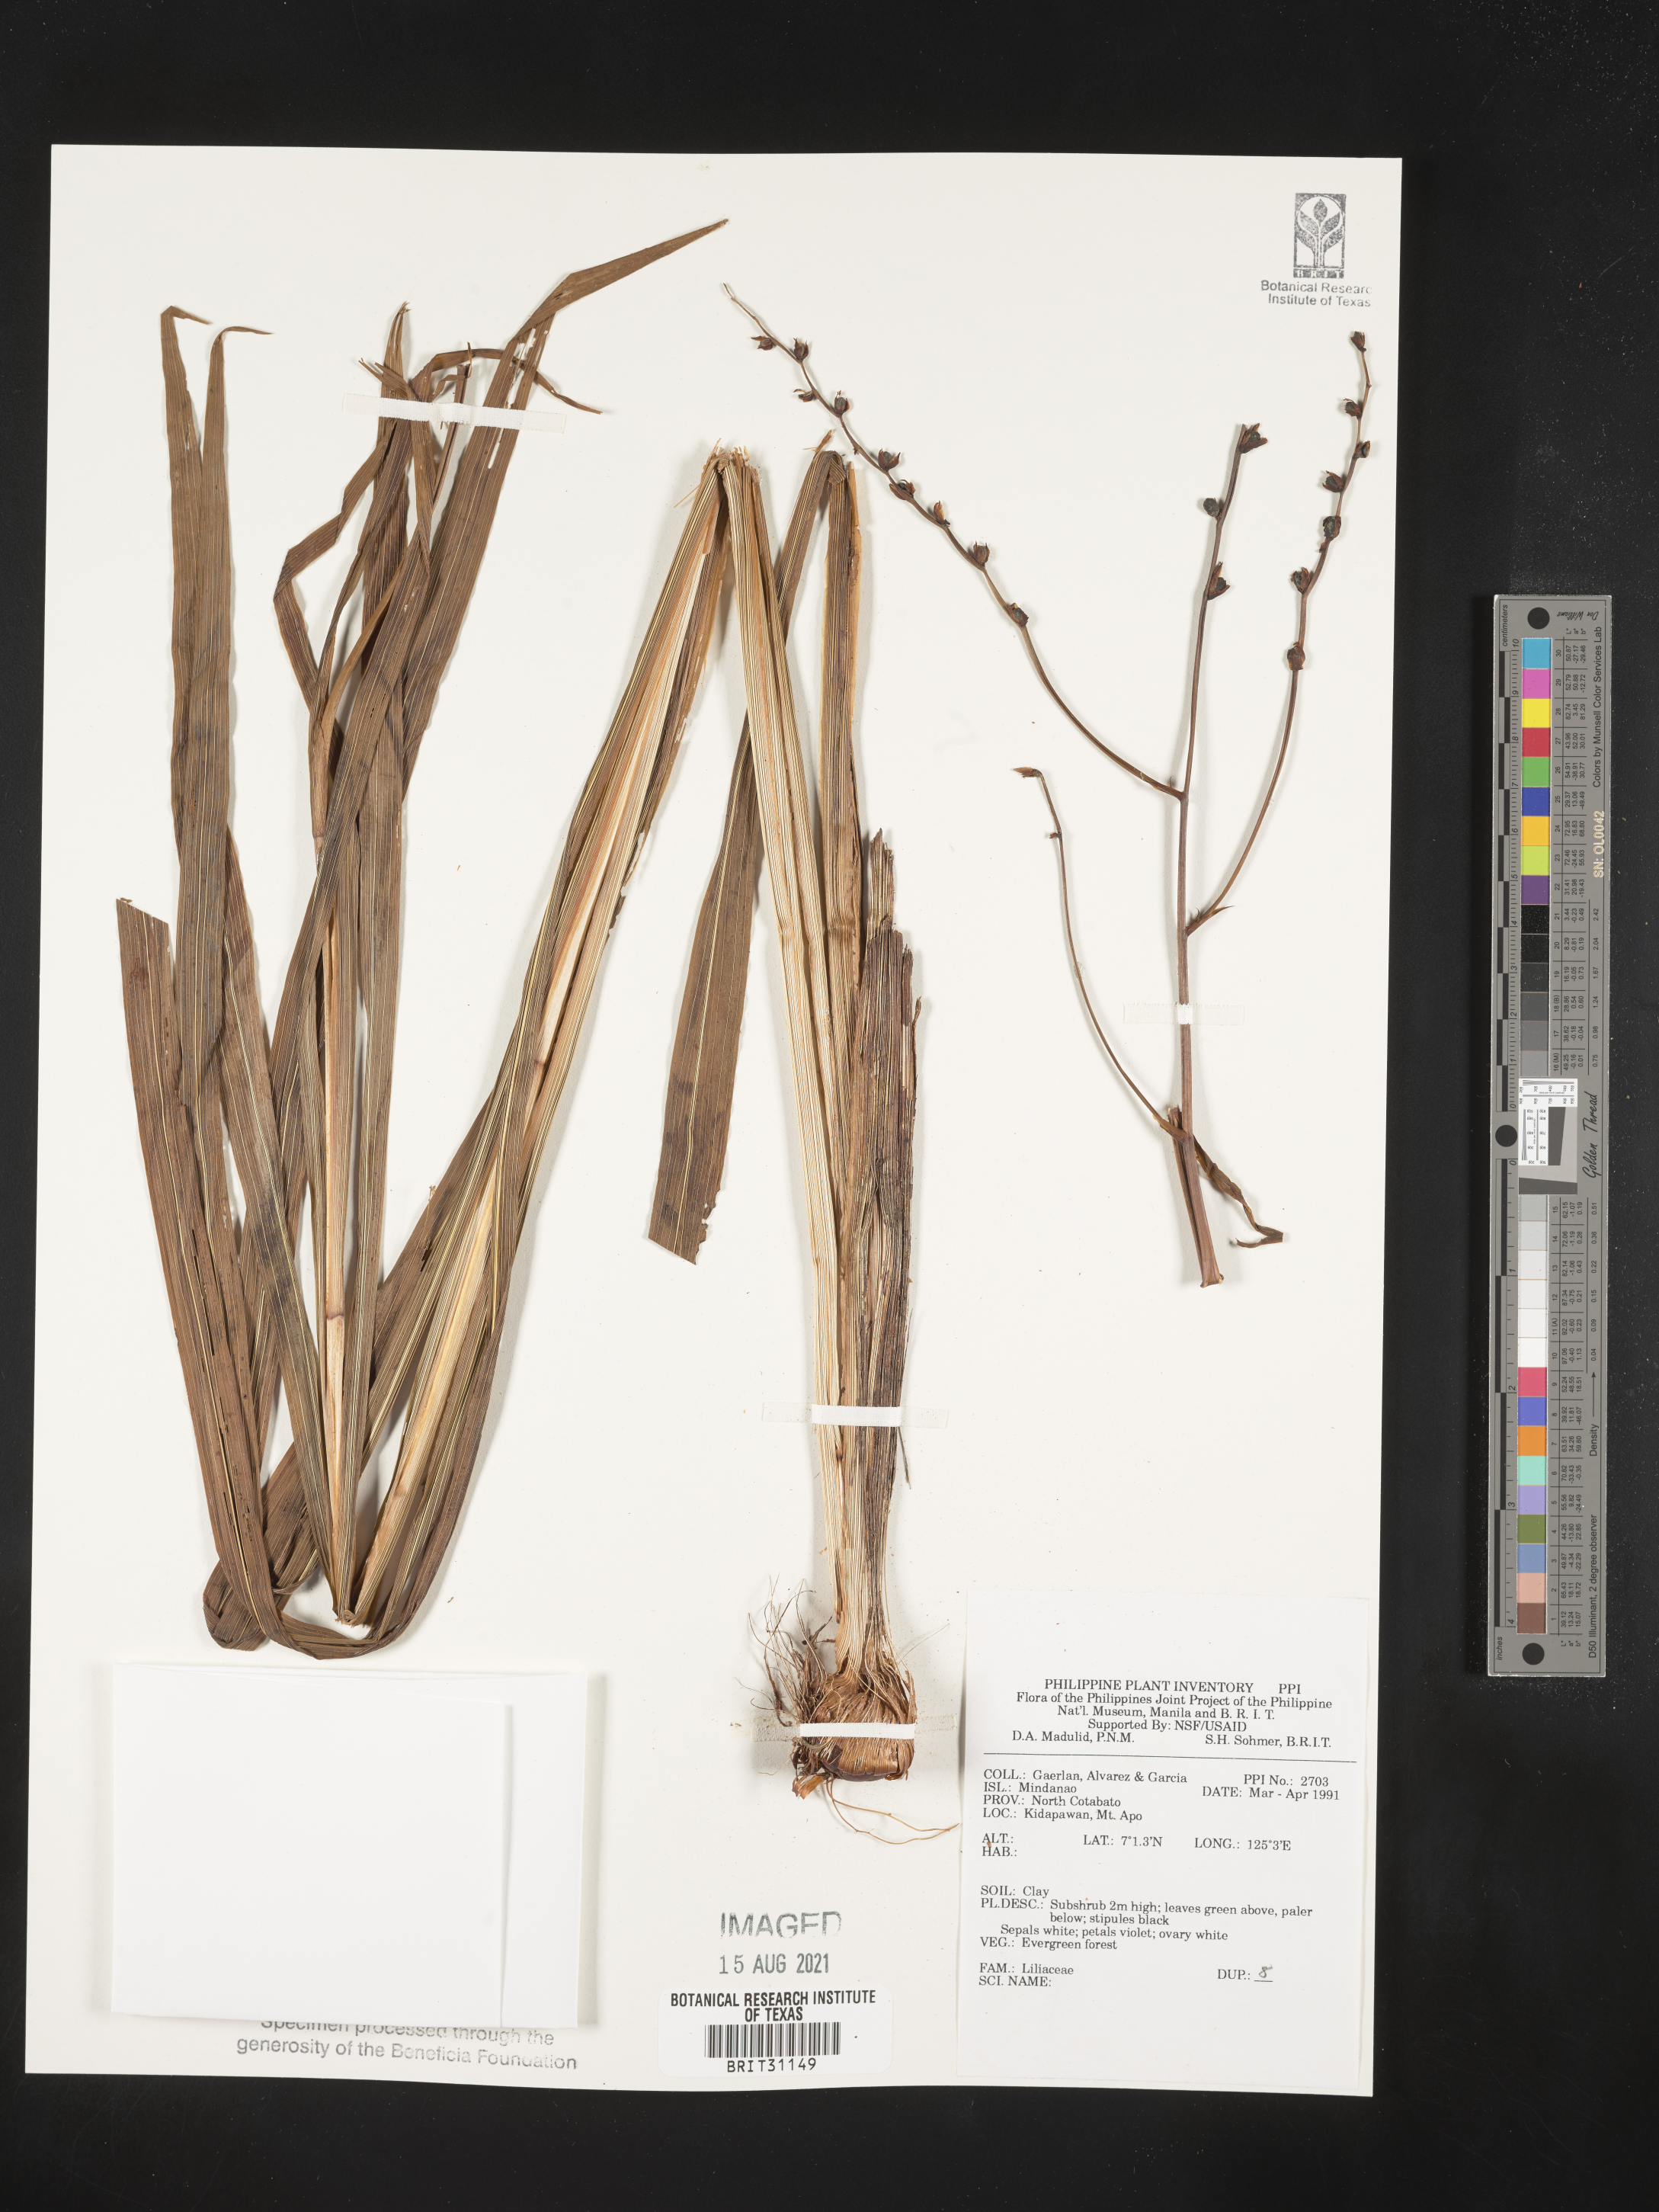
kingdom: Plantae
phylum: Tracheophyta
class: Liliopsida
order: Liliales
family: Liliaceae
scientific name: Liliaceae
